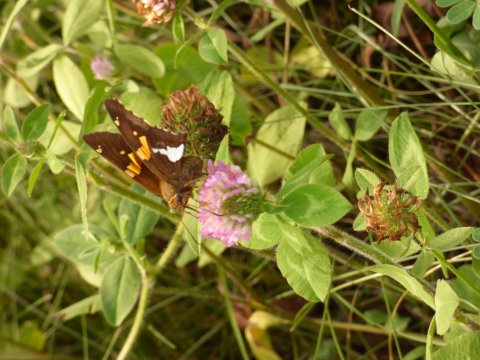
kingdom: Animalia
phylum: Arthropoda
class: Insecta
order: Lepidoptera
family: Hesperiidae
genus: Epargyreus
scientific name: Epargyreus clarus
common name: Silver-spotted Skipper
